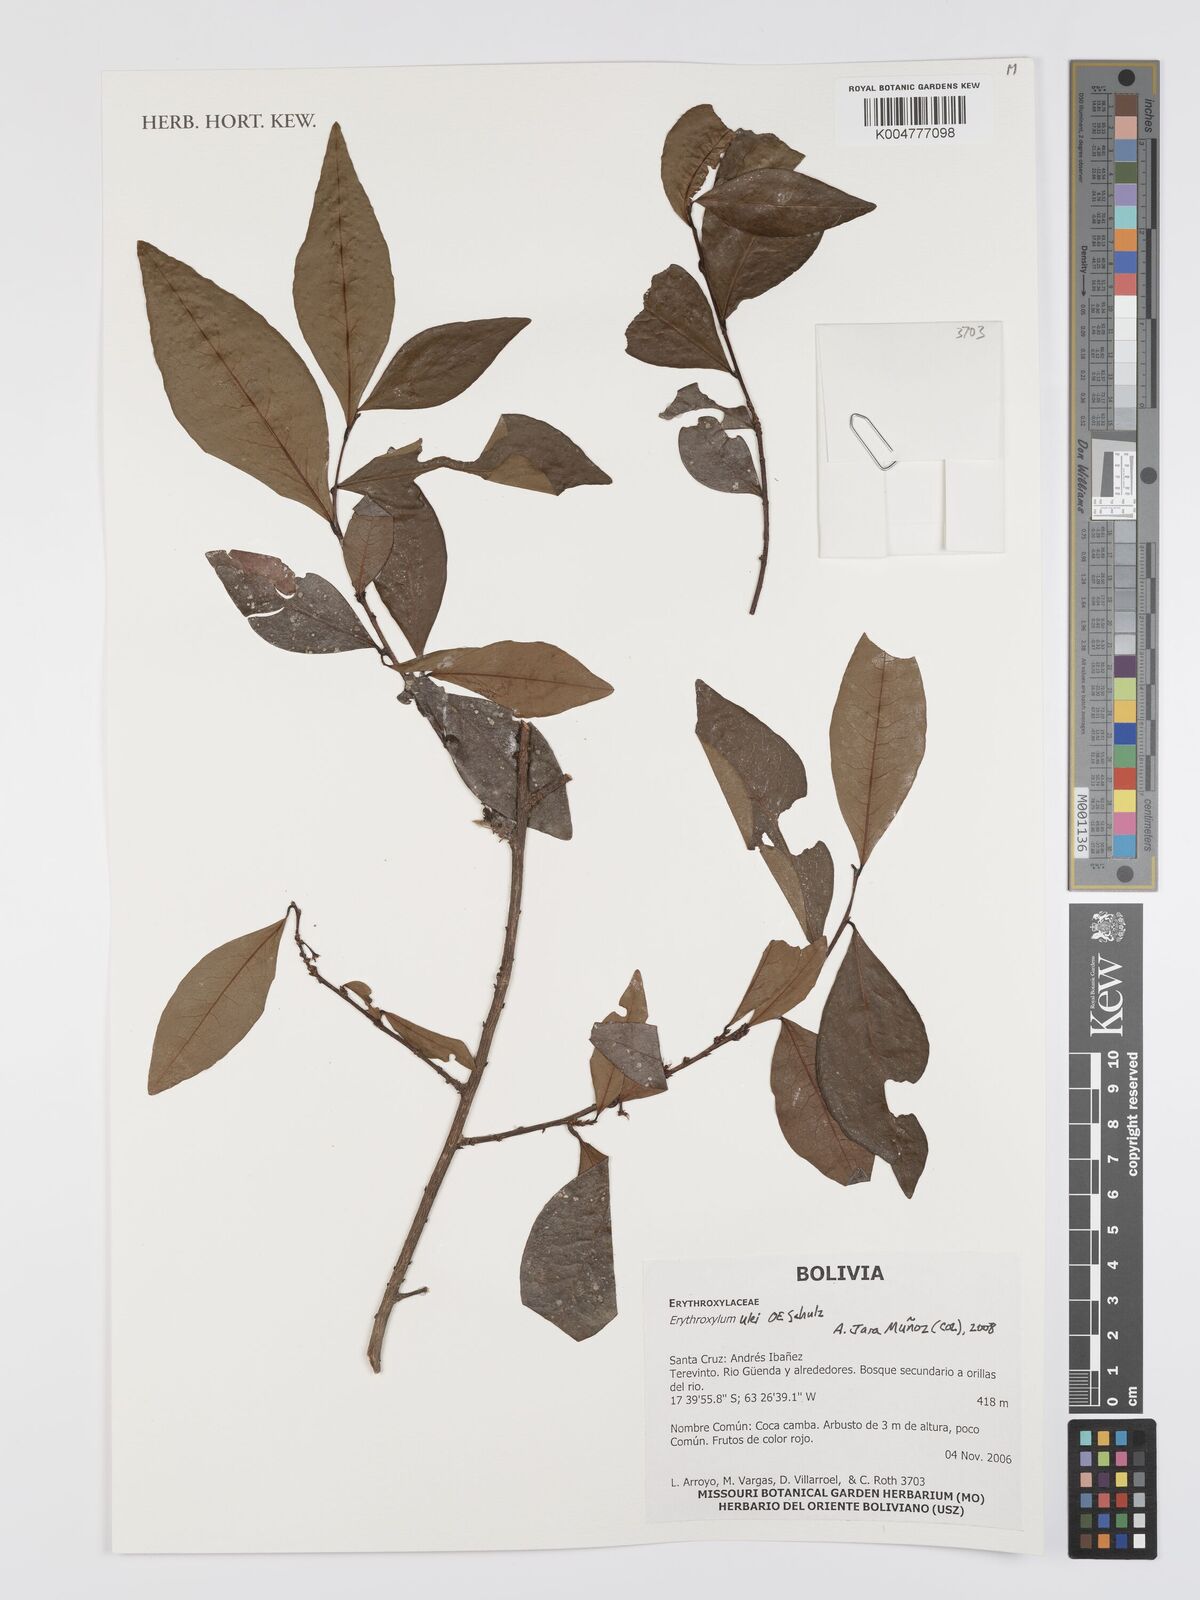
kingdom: Plantae
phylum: Tracheophyta
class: Magnoliopsida
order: Malpighiales
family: Erythroxylaceae
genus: Erythroxylum
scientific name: Erythroxylum ulei
